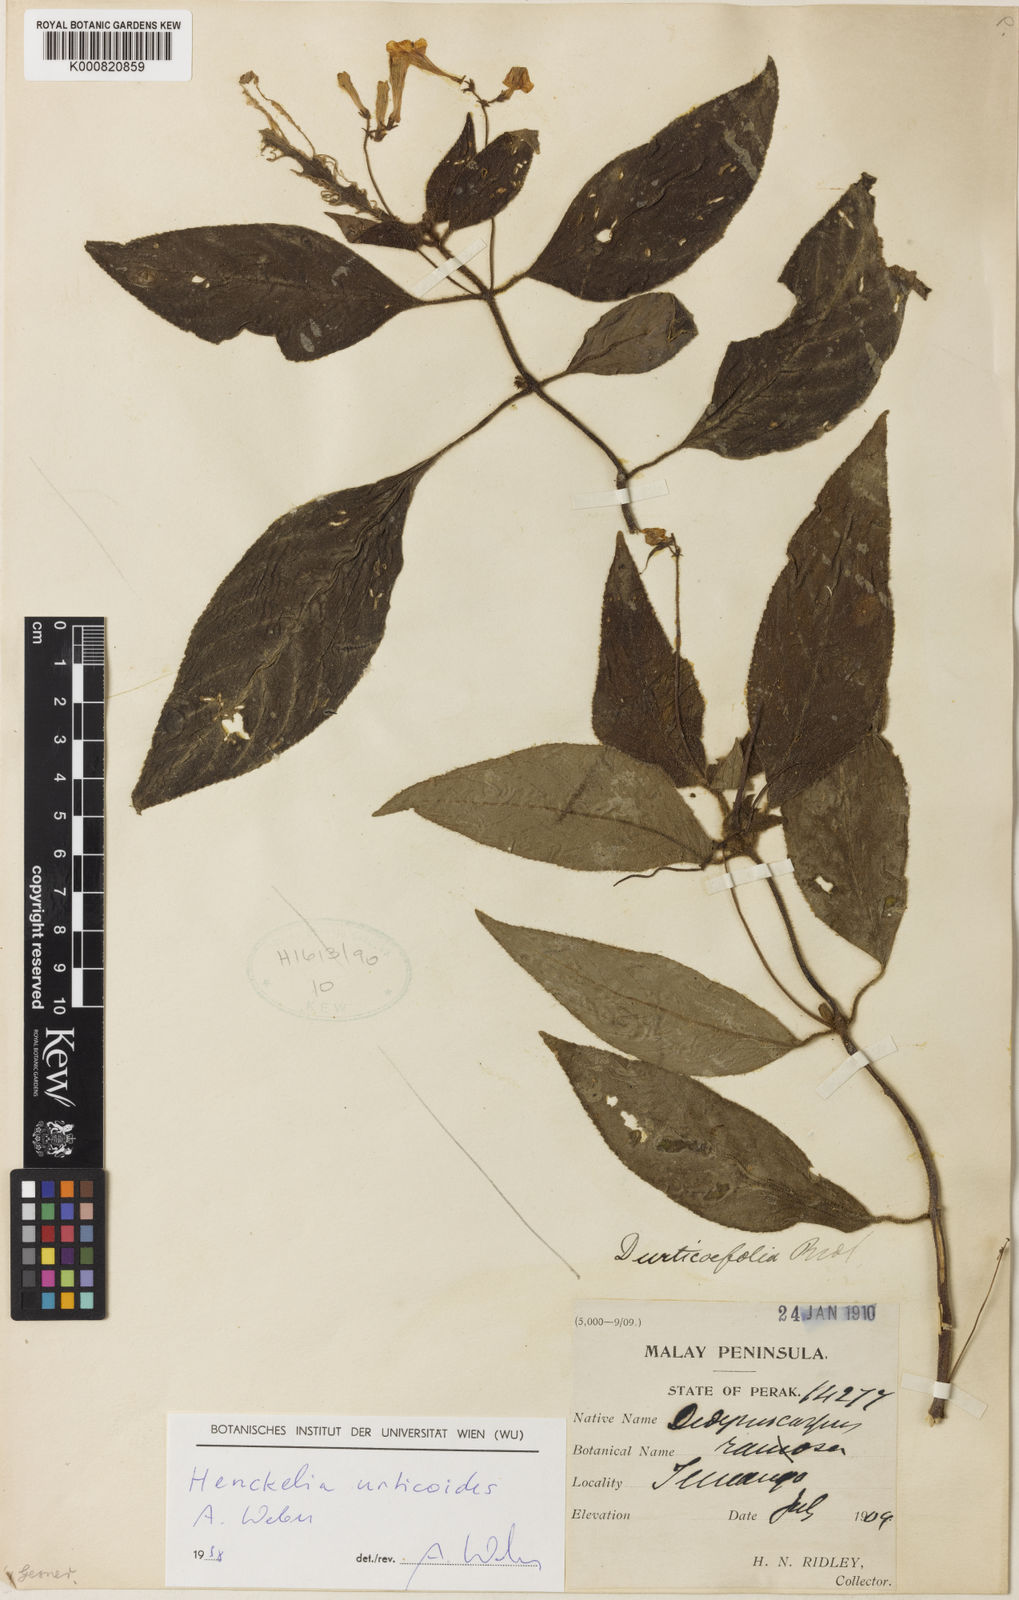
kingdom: Plantae
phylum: Tracheophyta
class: Magnoliopsida
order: Lamiales
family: Gesneriaceae
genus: Codonoboea
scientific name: Codonoboea urticoides
